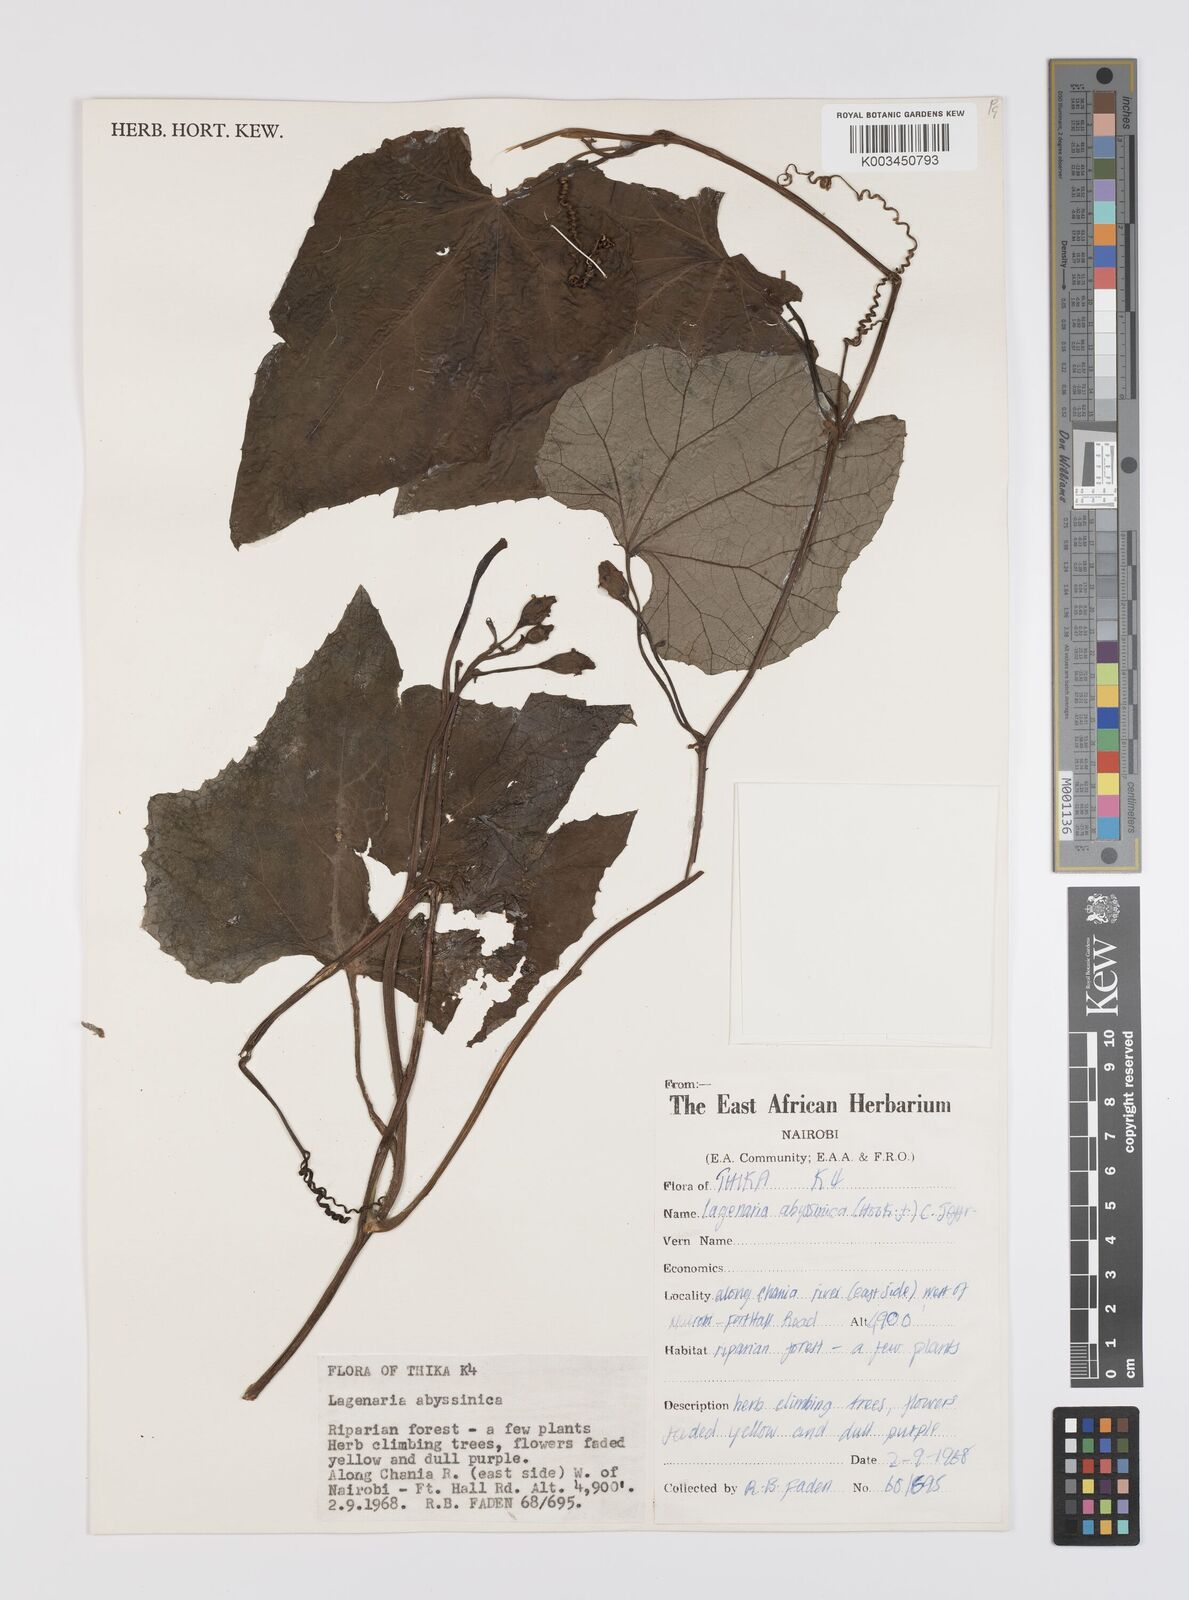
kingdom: Plantae
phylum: Tracheophyta
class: Magnoliopsida
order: Cucurbitales
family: Cucurbitaceae
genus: Lagenaria
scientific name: Lagenaria abyssinica
